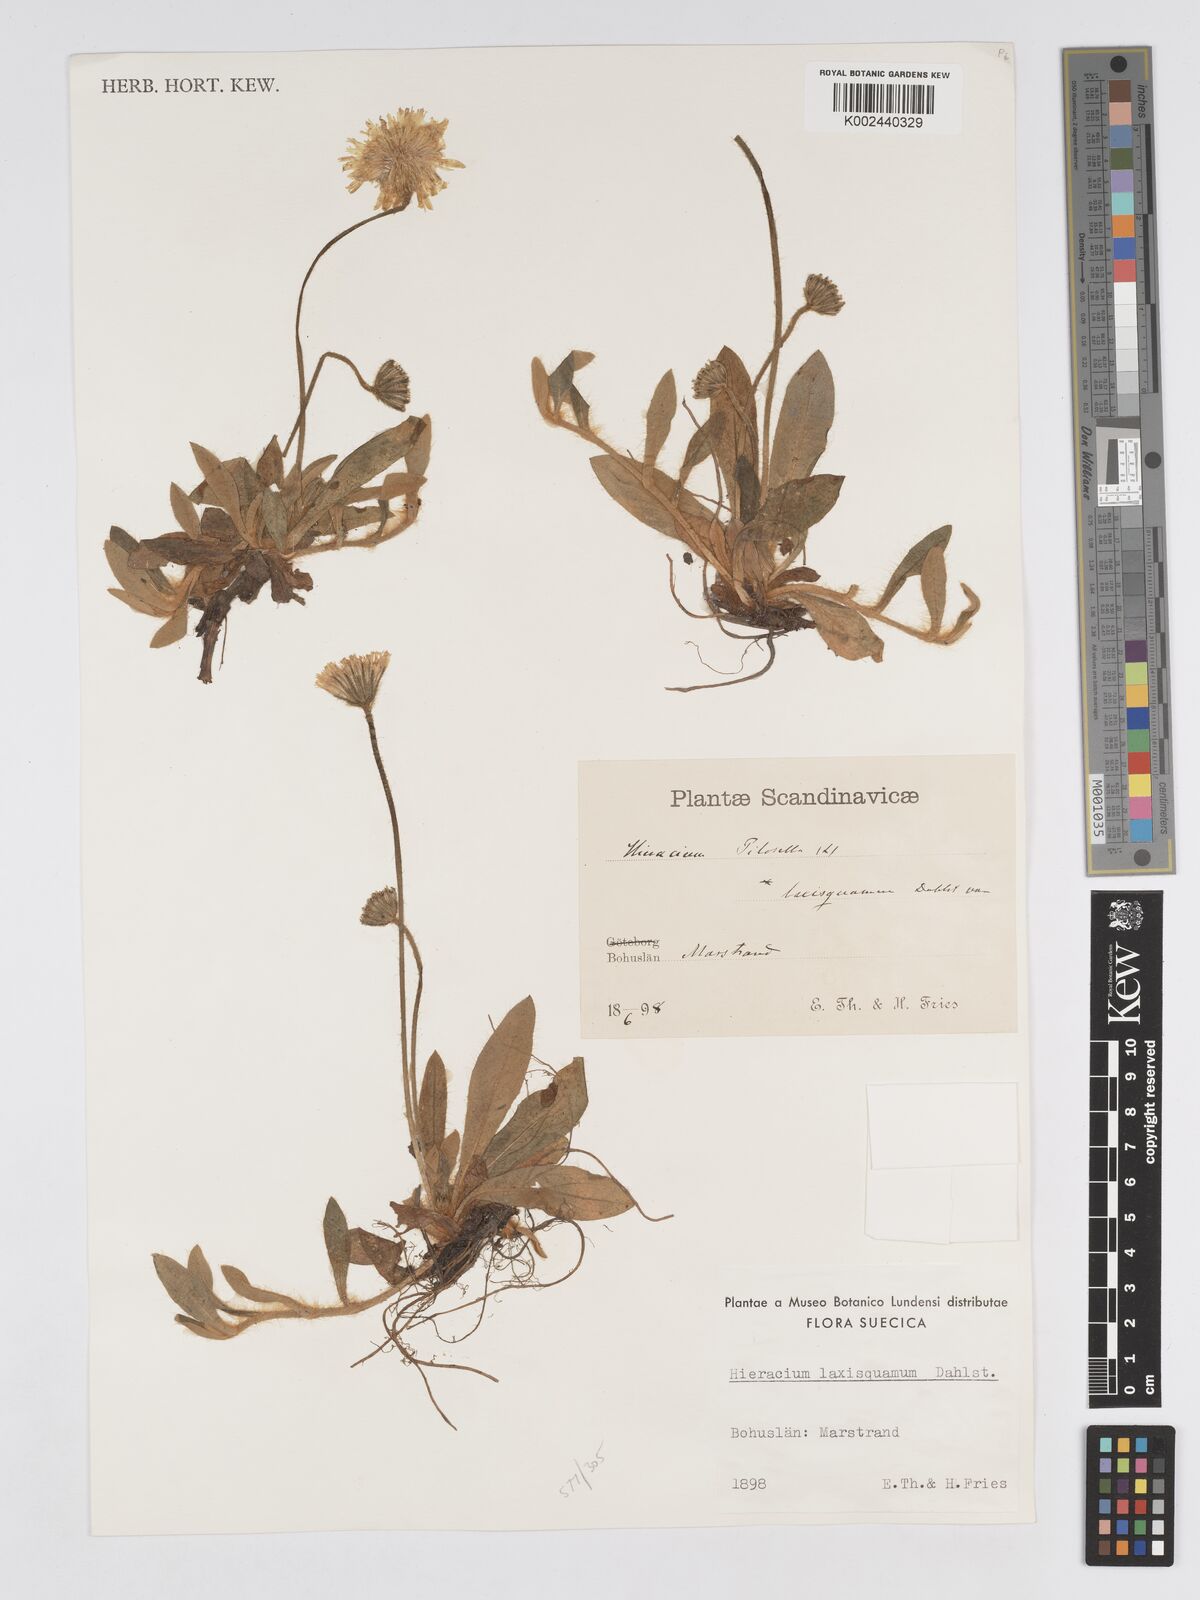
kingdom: Plantae
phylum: Tracheophyta
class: Magnoliopsida
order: Asterales
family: Asteraceae
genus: Pilosella
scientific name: Pilosella officinarum
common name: Mouse-ear hawkweed
